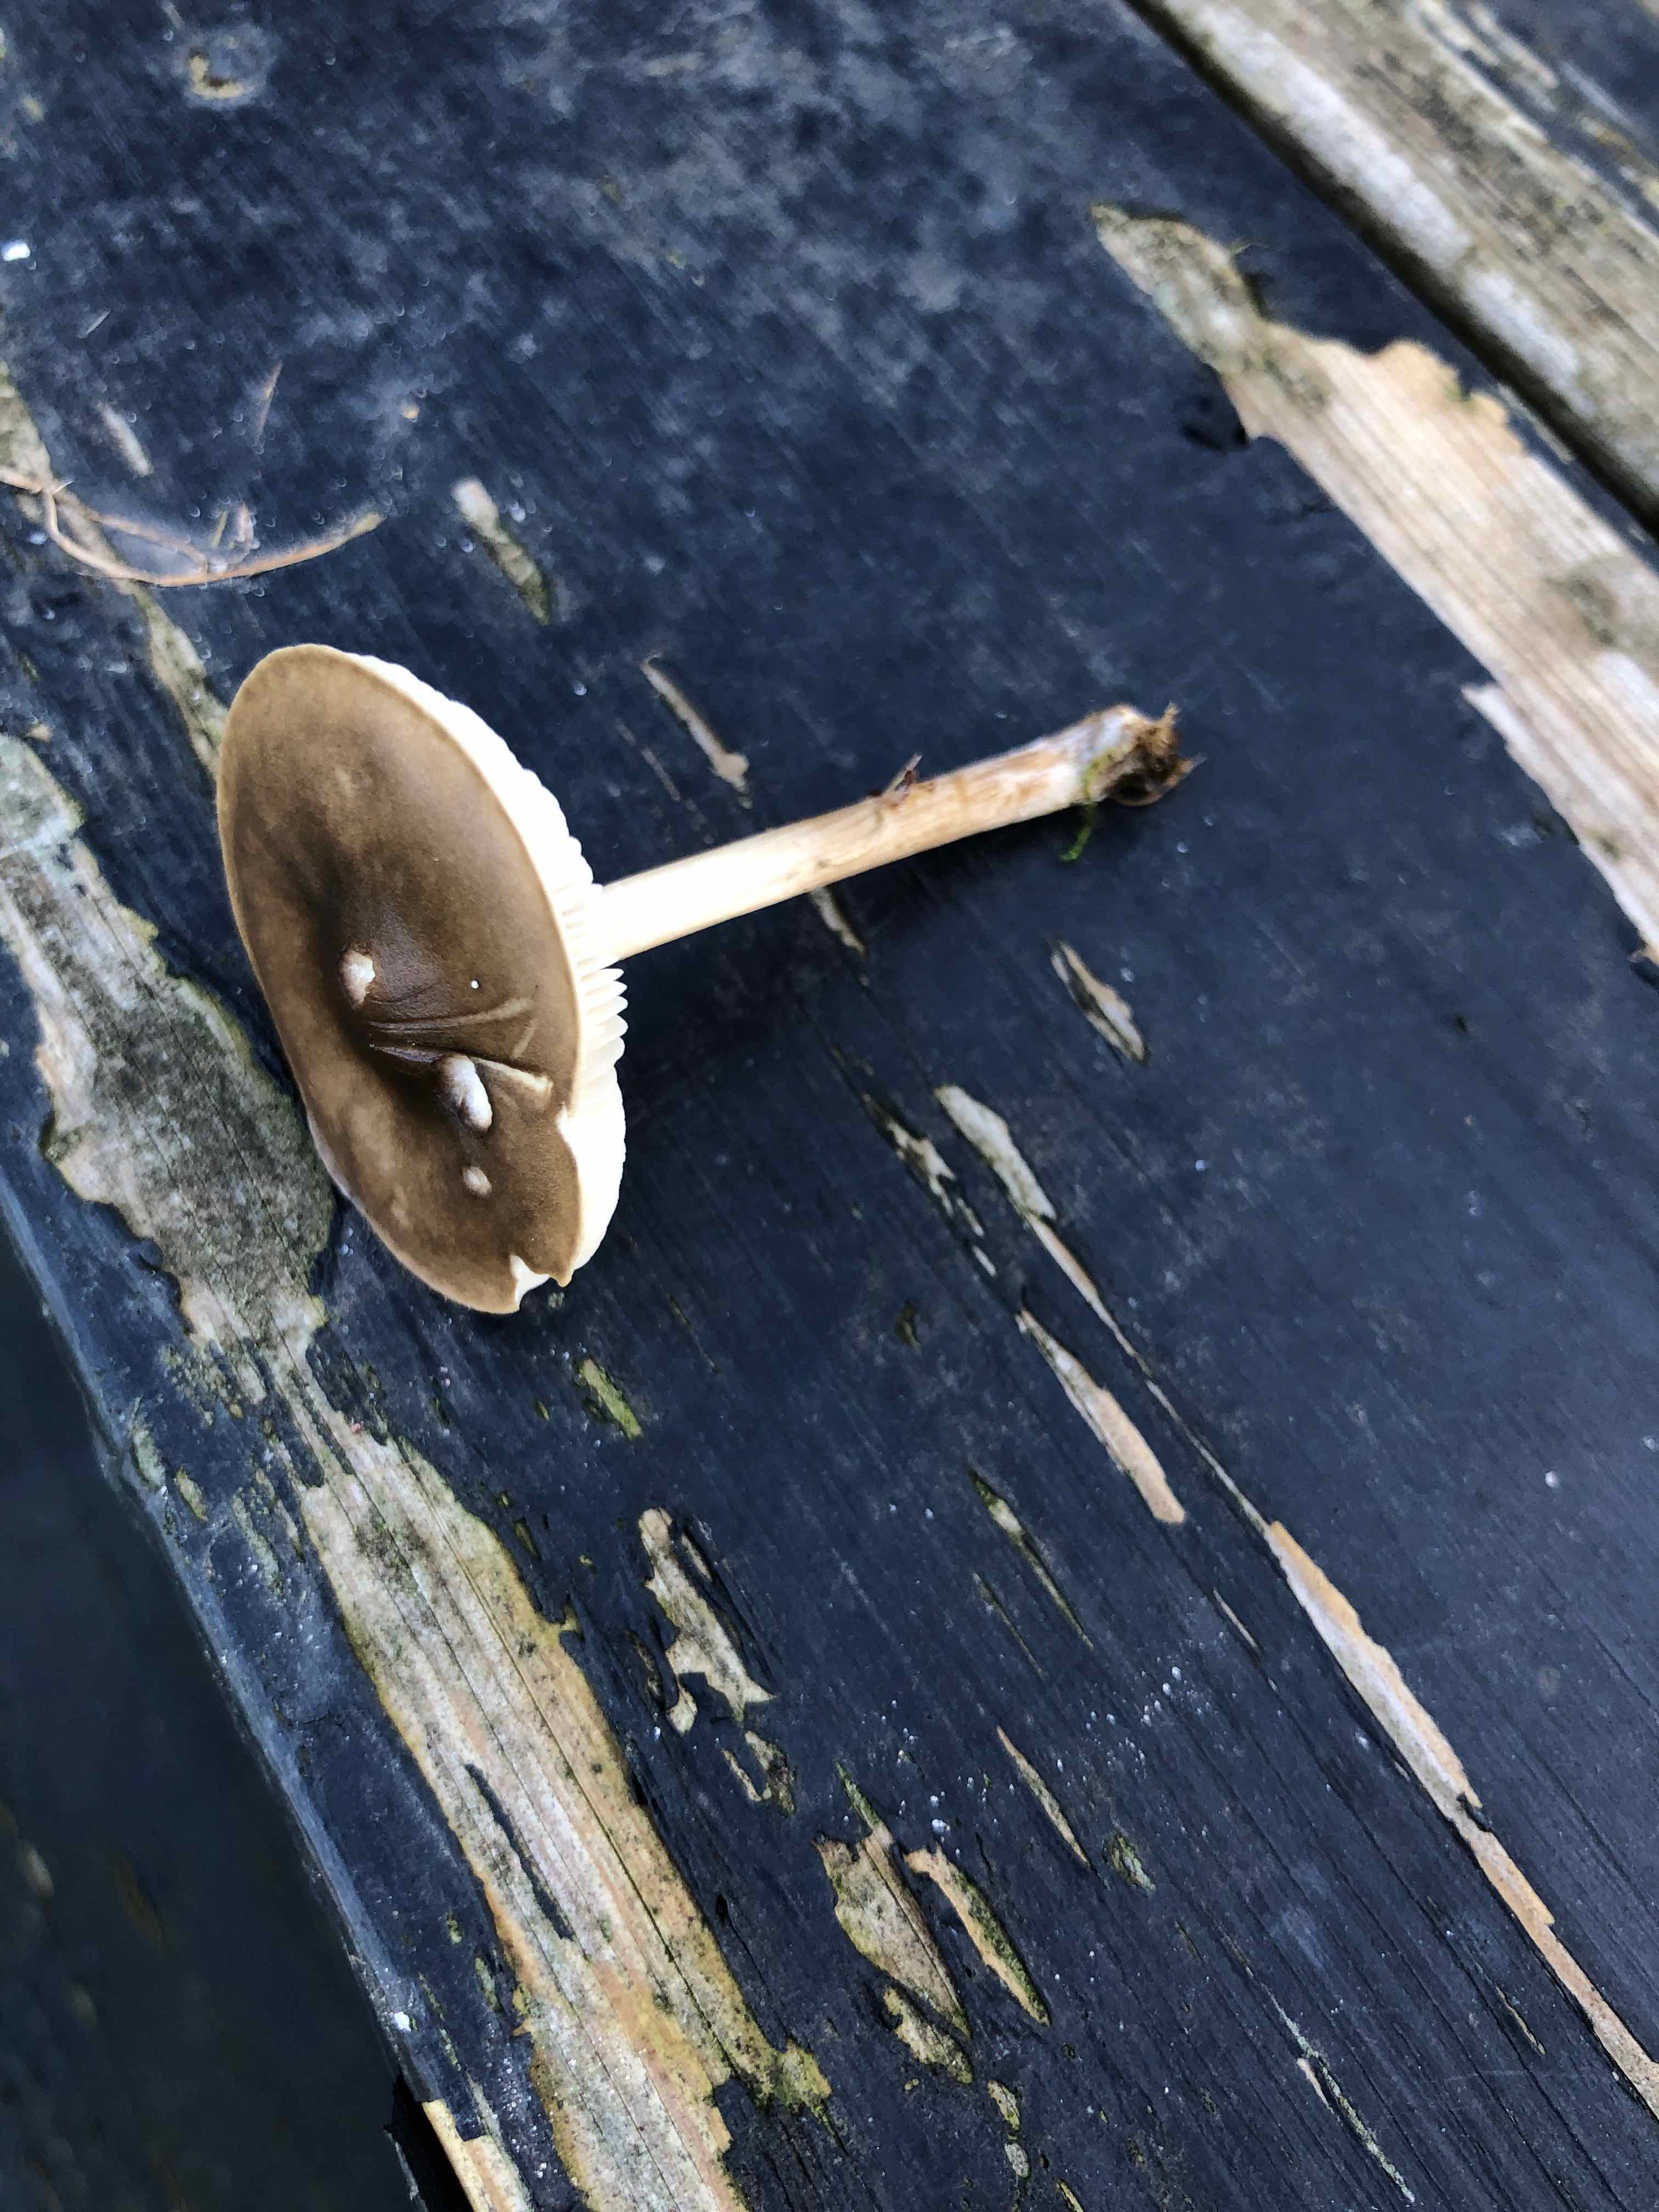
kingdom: Fungi
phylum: Basidiomycota
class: Agaricomycetes
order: Agaricales
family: Tricholomataceae
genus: Melanoleuca
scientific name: Melanoleuca polioleuca
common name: almindelig munkehat
